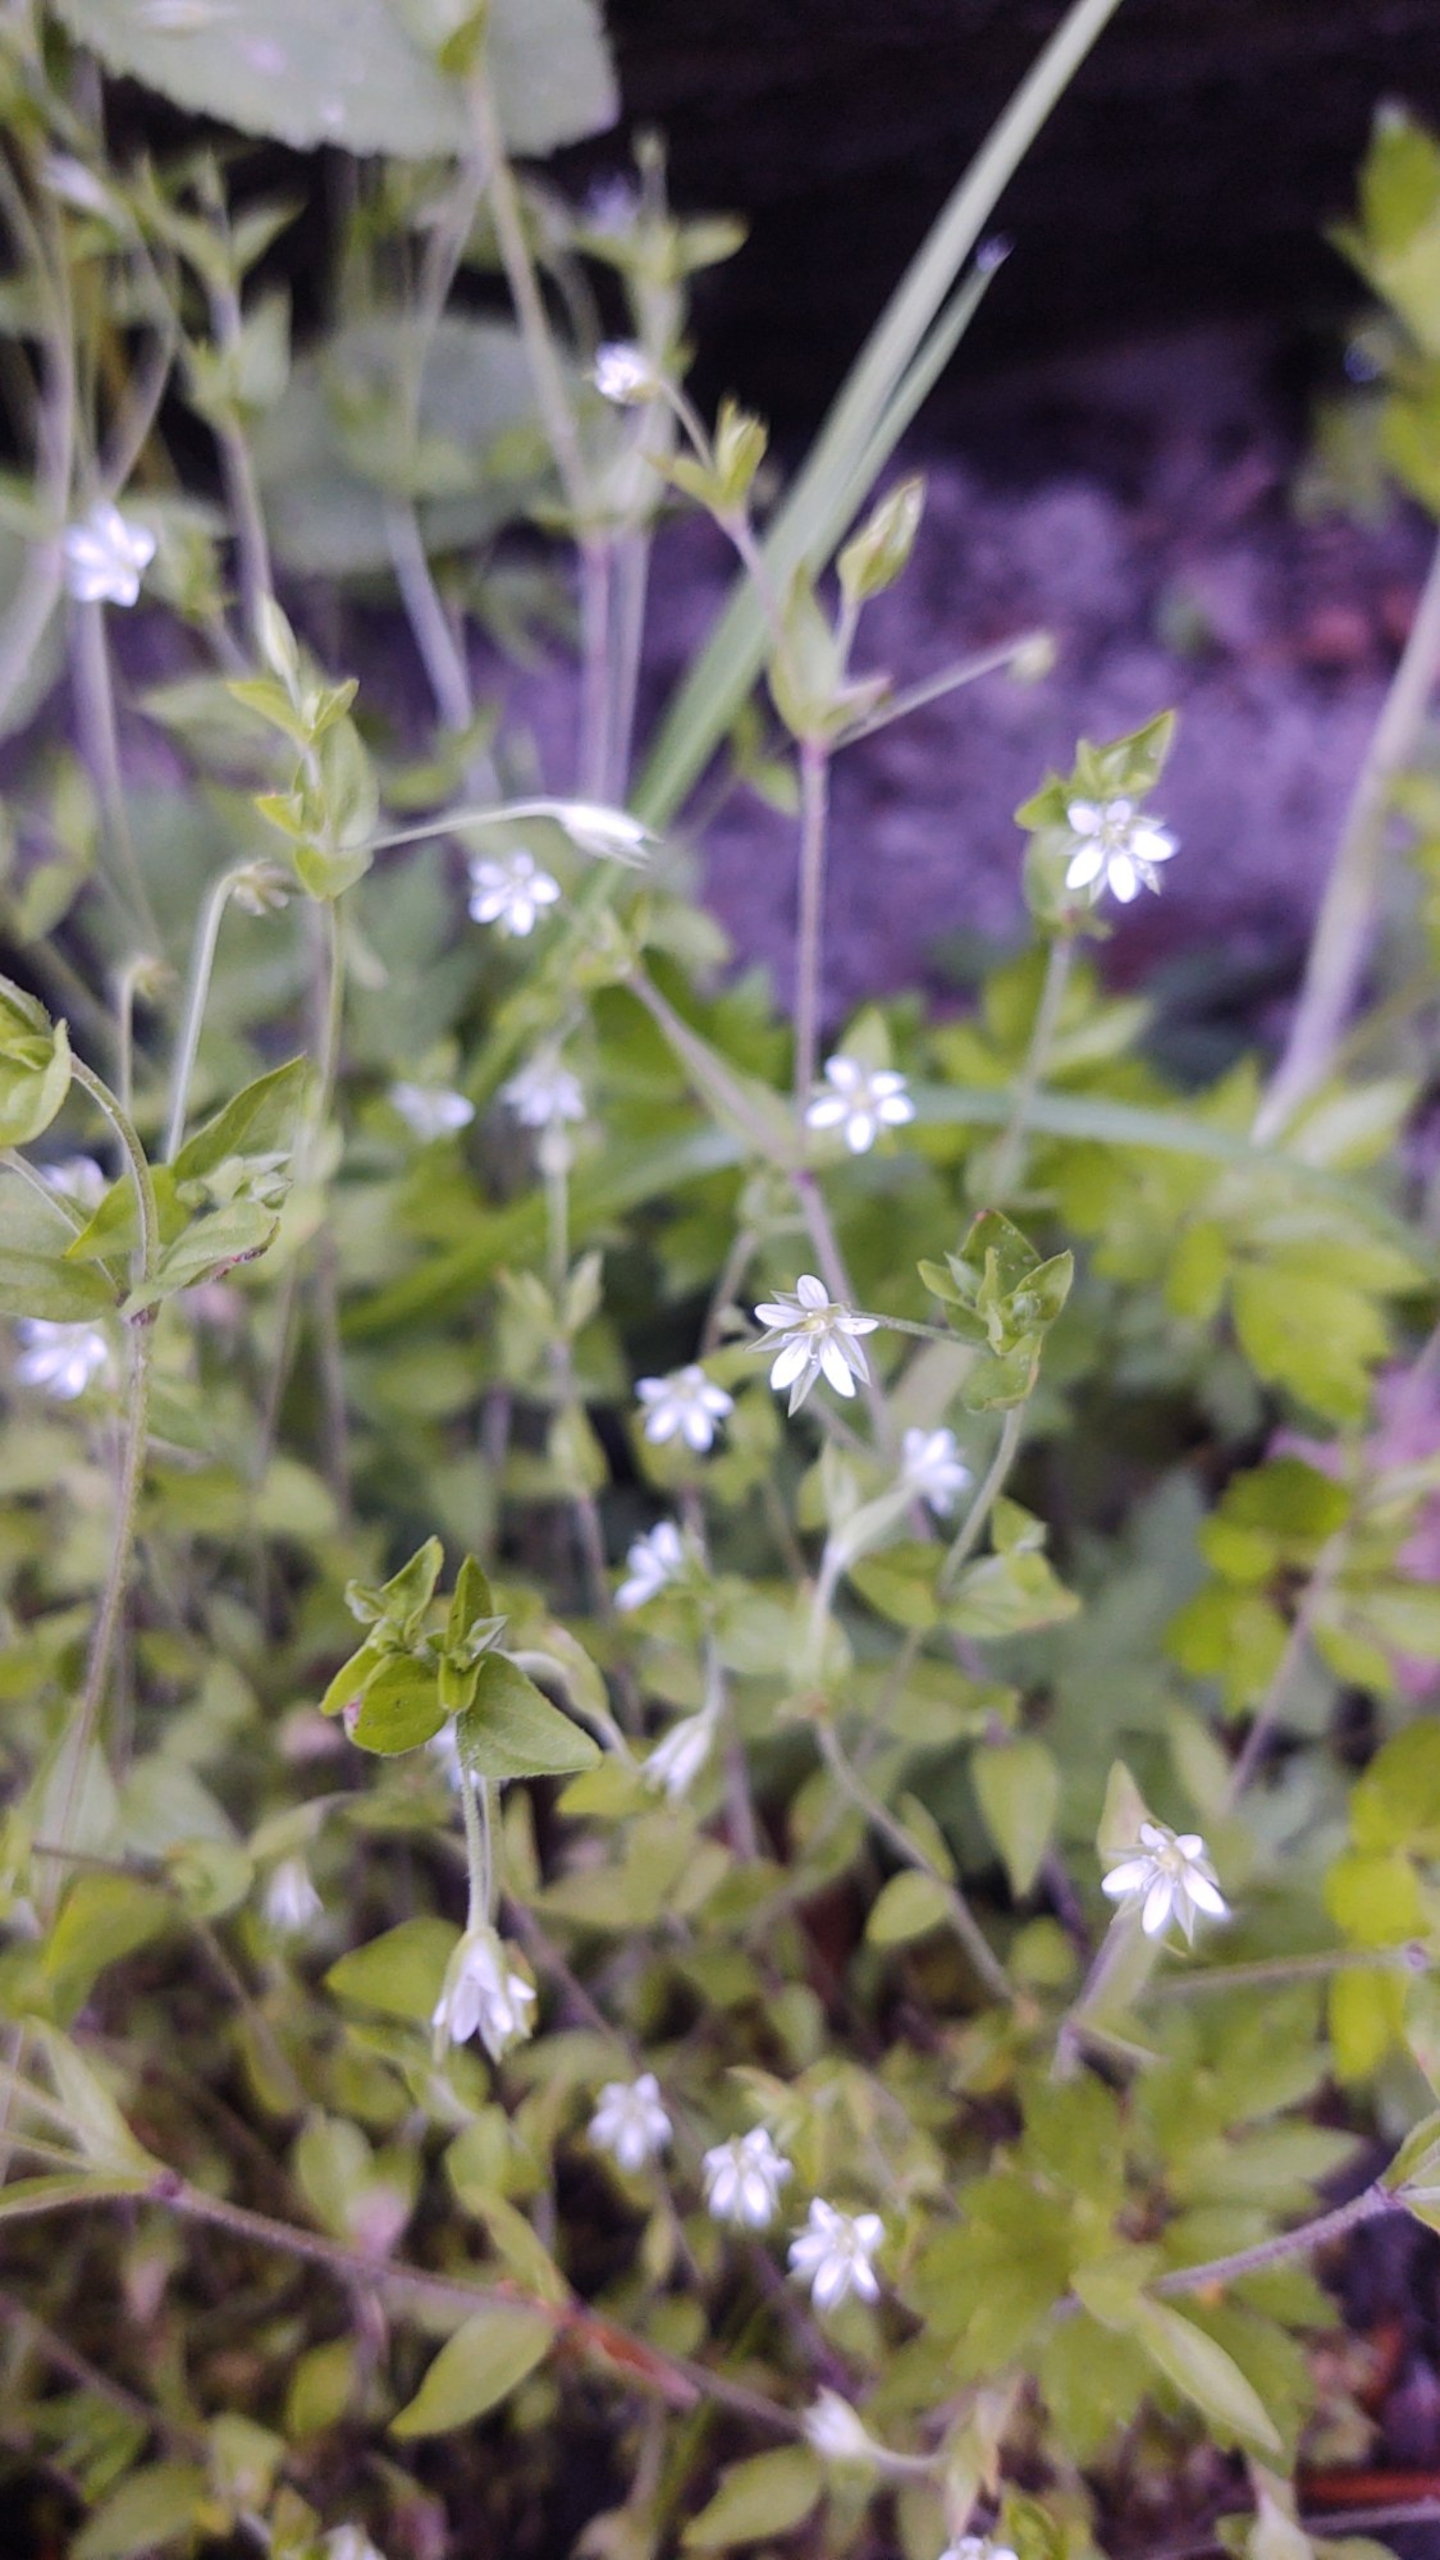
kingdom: Plantae
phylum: Tracheophyta
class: Magnoliopsida
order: Caryophyllales
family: Caryophyllaceae
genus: Moehringia
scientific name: Moehringia trinervia
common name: Skovarve
